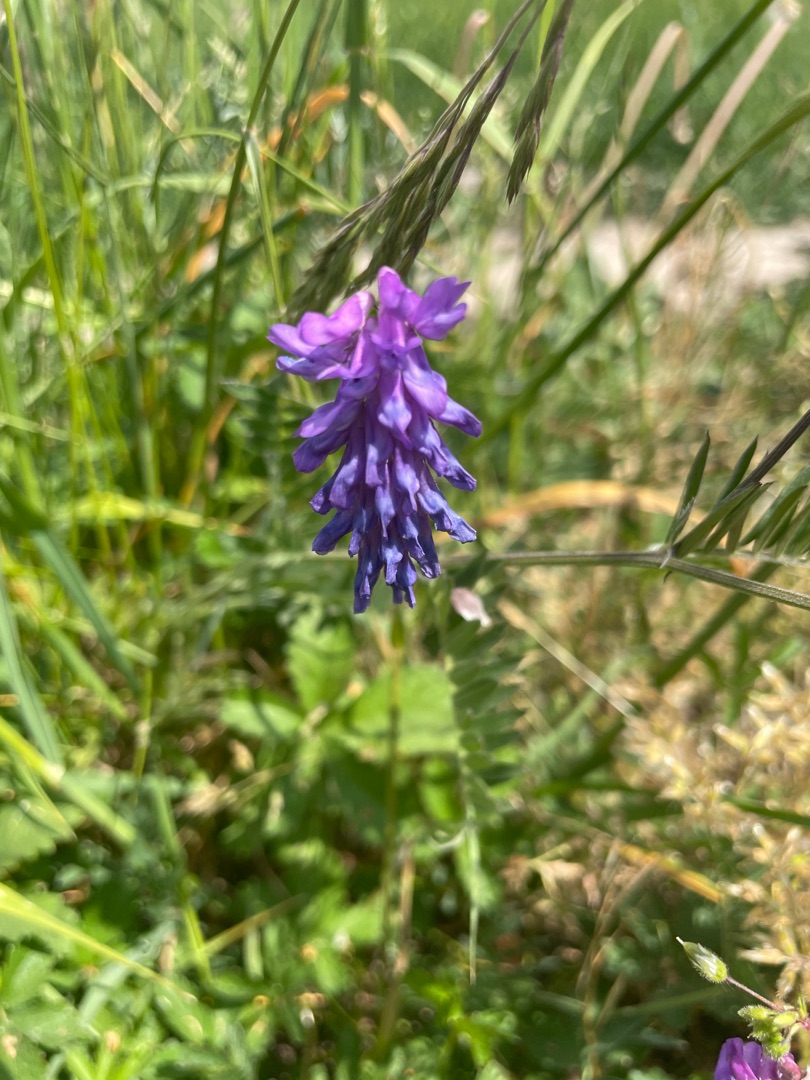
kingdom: Plantae
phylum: Tracheophyta
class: Magnoliopsida
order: Fabales
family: Fabaceae
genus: Vicia
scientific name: Vicia cracca
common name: Muse-vikke
